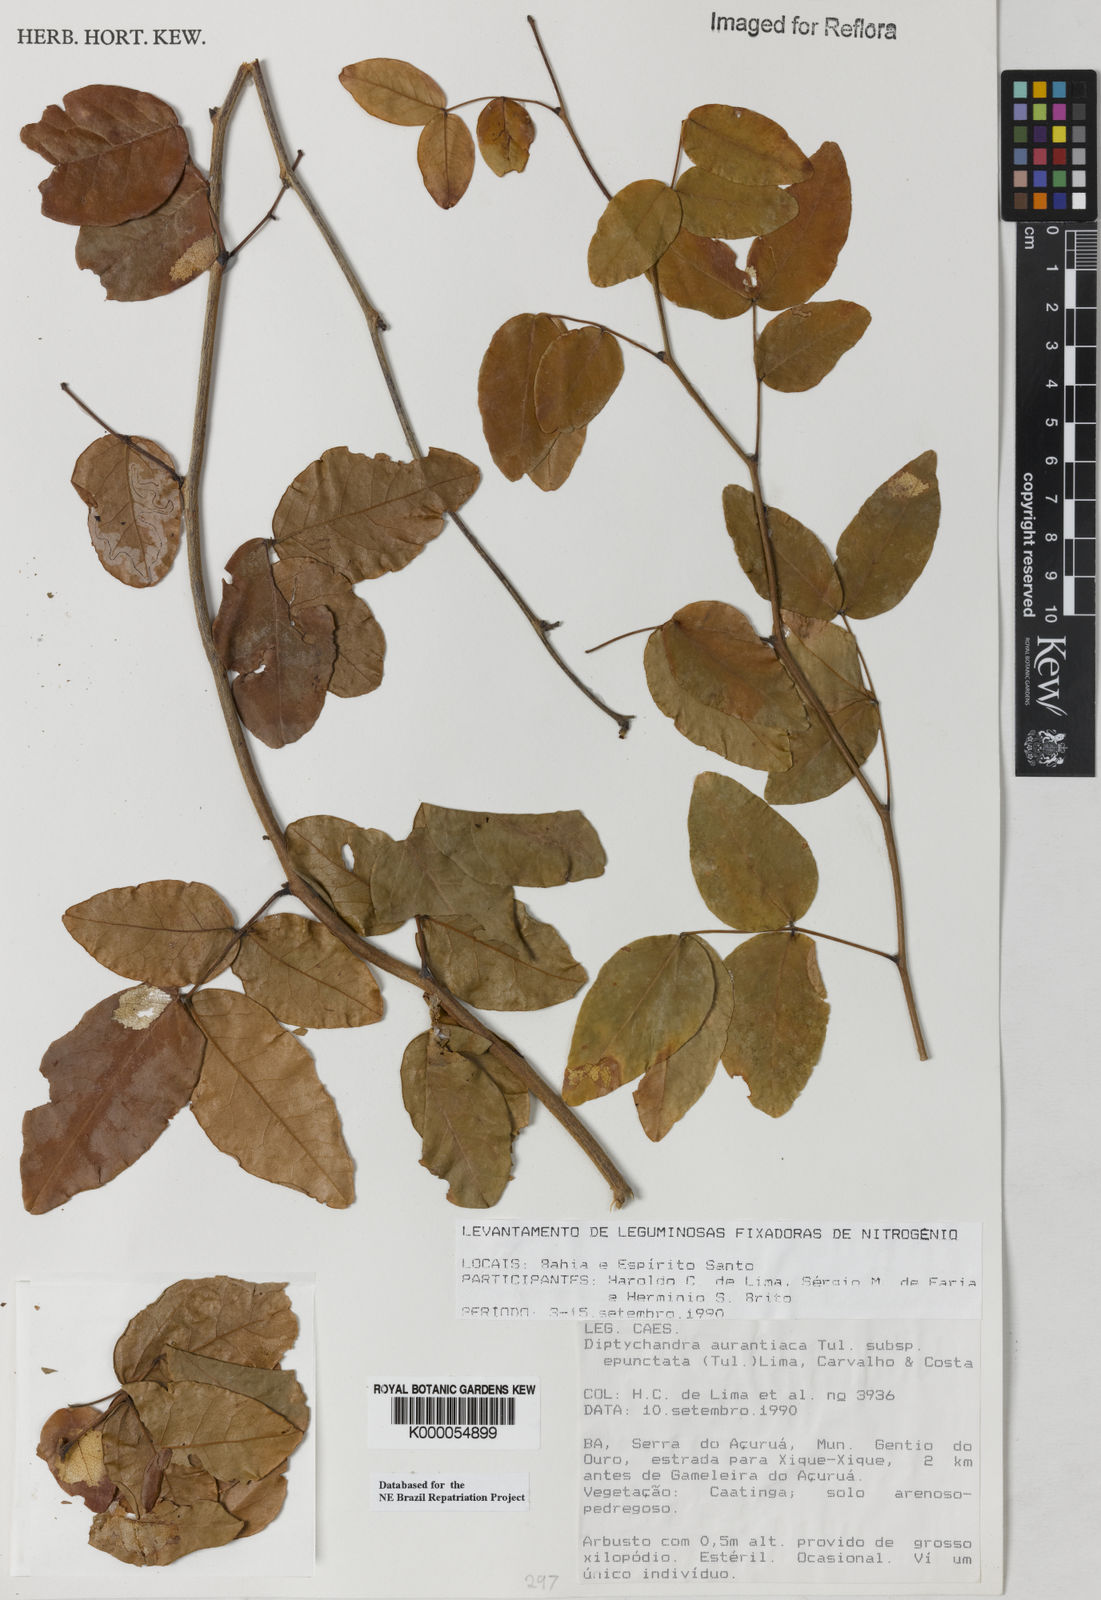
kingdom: Plantae
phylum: Tracheophyta
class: Magnoliopsida
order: Fabales
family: Fabaceae
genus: Diptychandra
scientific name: Diptychandra aurantiaca
